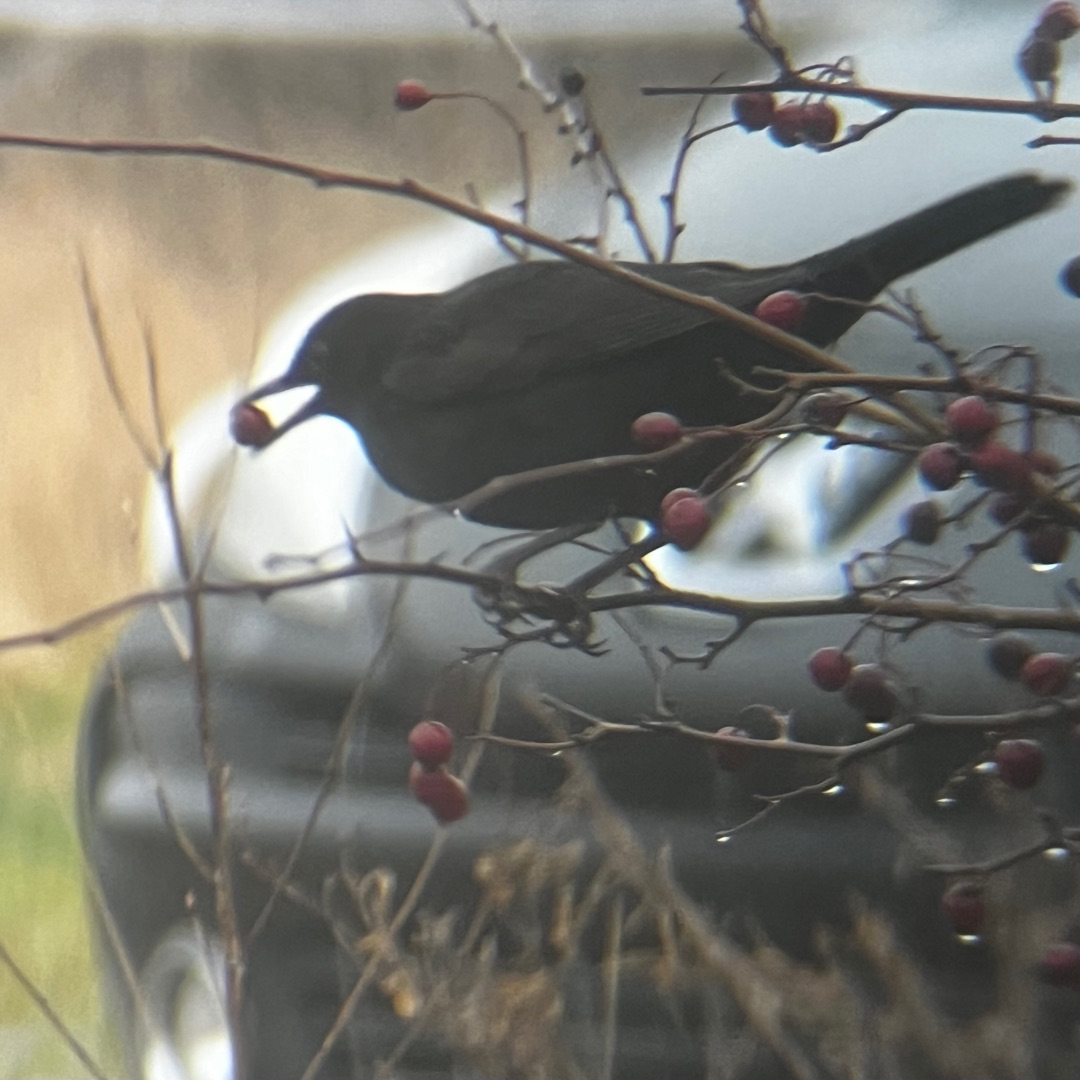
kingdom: Animalia
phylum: Chordata
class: Aves
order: Passeriformes
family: Turdidae
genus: Turdus
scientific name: Turdus merula
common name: Solsort
